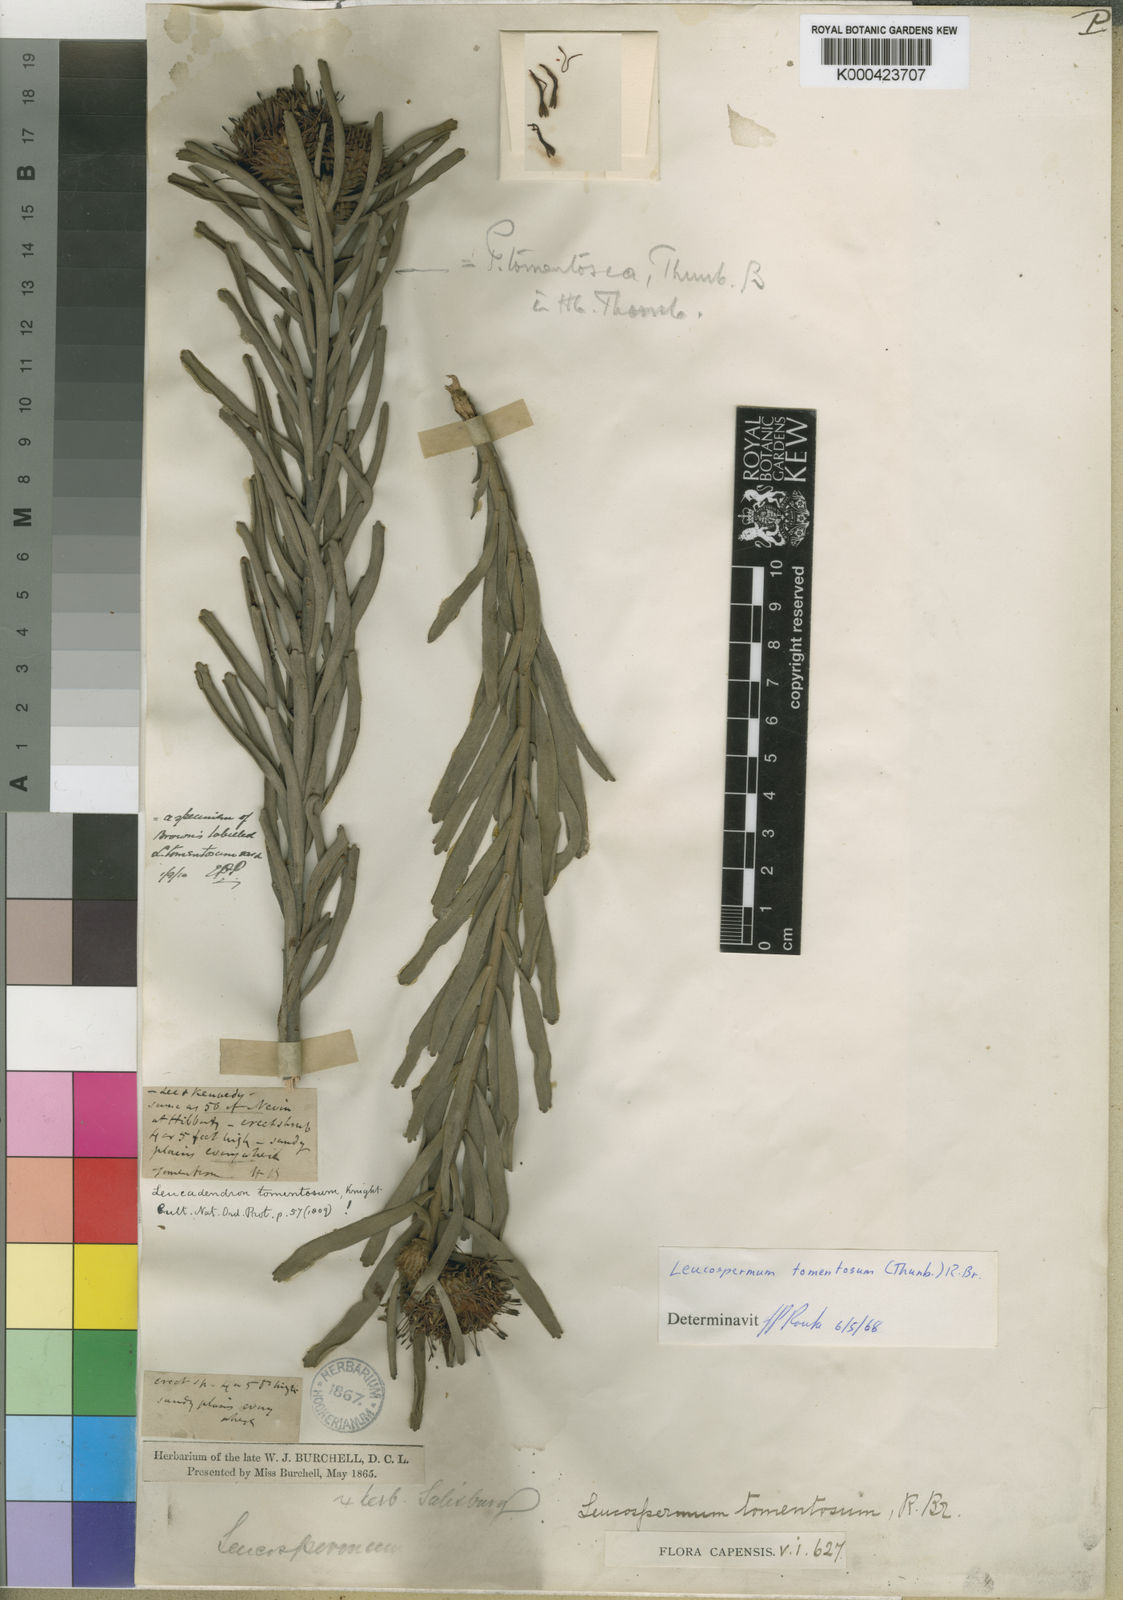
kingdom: Plantae
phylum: Tracheophyta
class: Magnoliopsida
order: Proteales
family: Proteaceae
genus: Leucospermum
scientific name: Leucospermum tomentosum
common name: Saldanha pincushion
